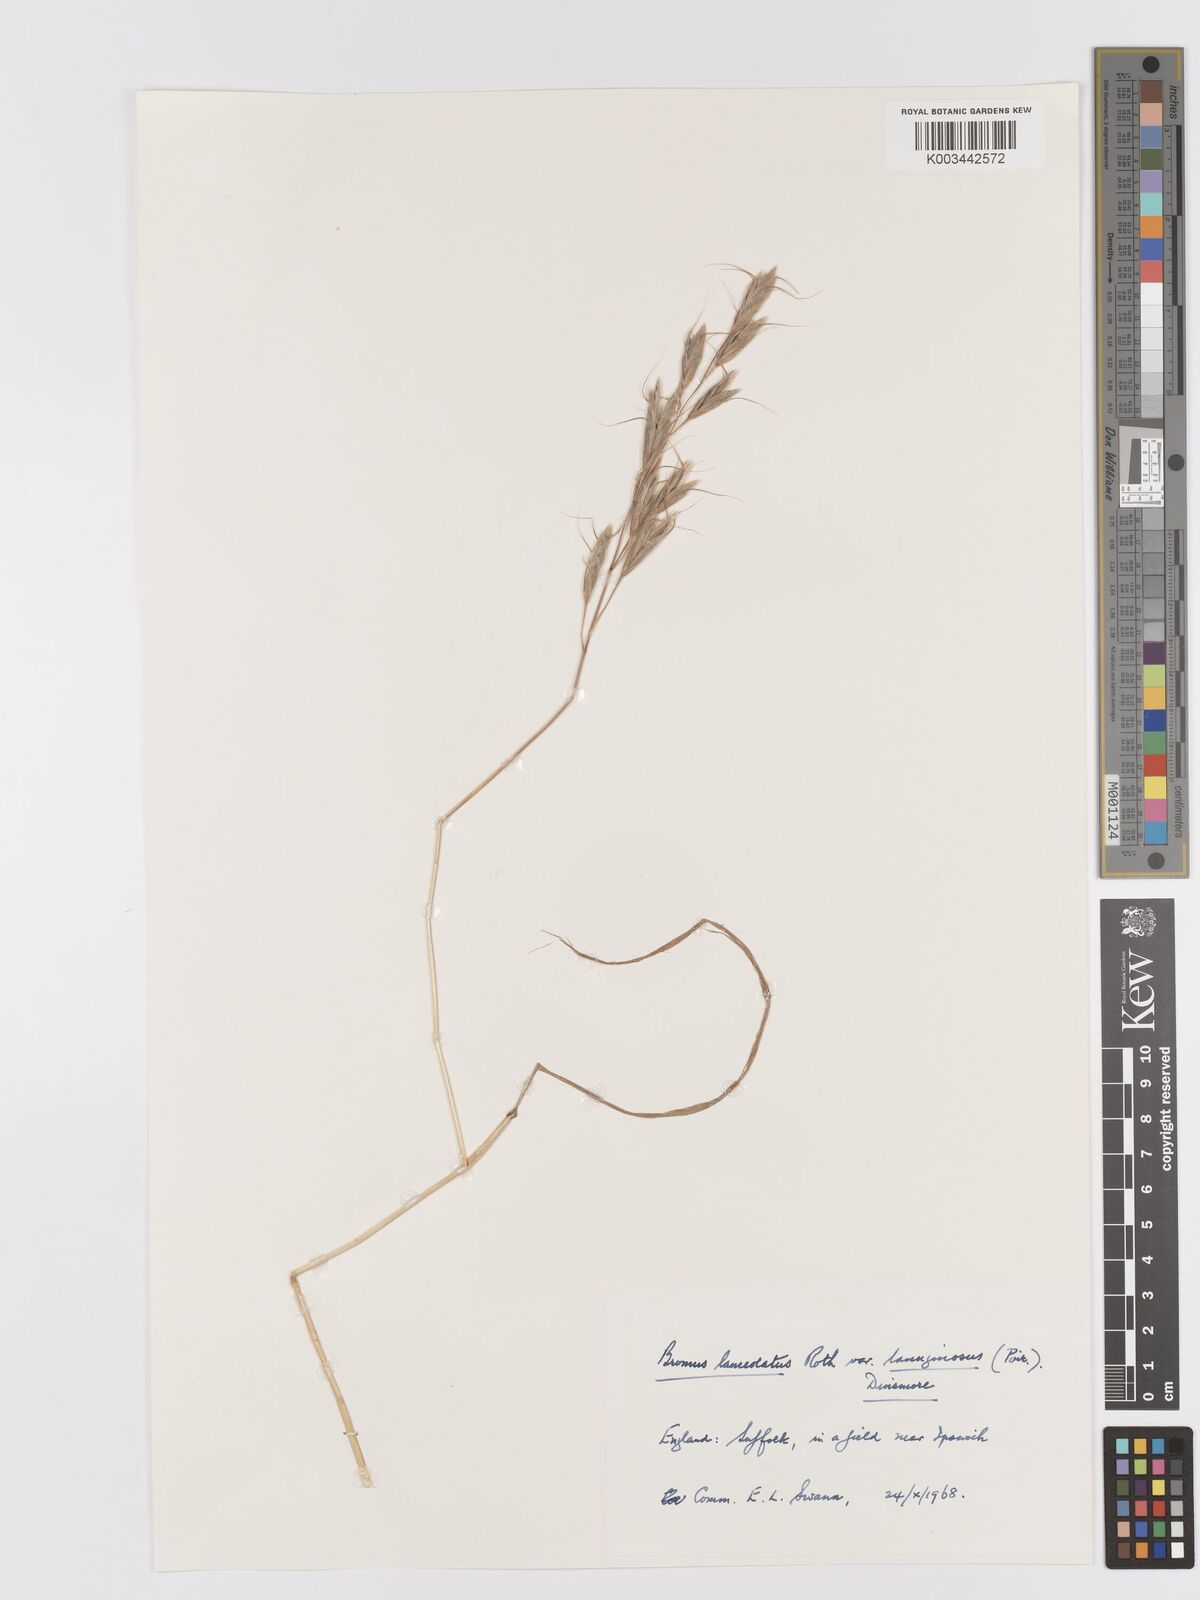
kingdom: Plantae
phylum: Tracheophyta
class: Liliopsida
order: Poales
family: Poaceae
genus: Bromus
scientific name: Bromus lanceolatus
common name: Mediterranean brome
